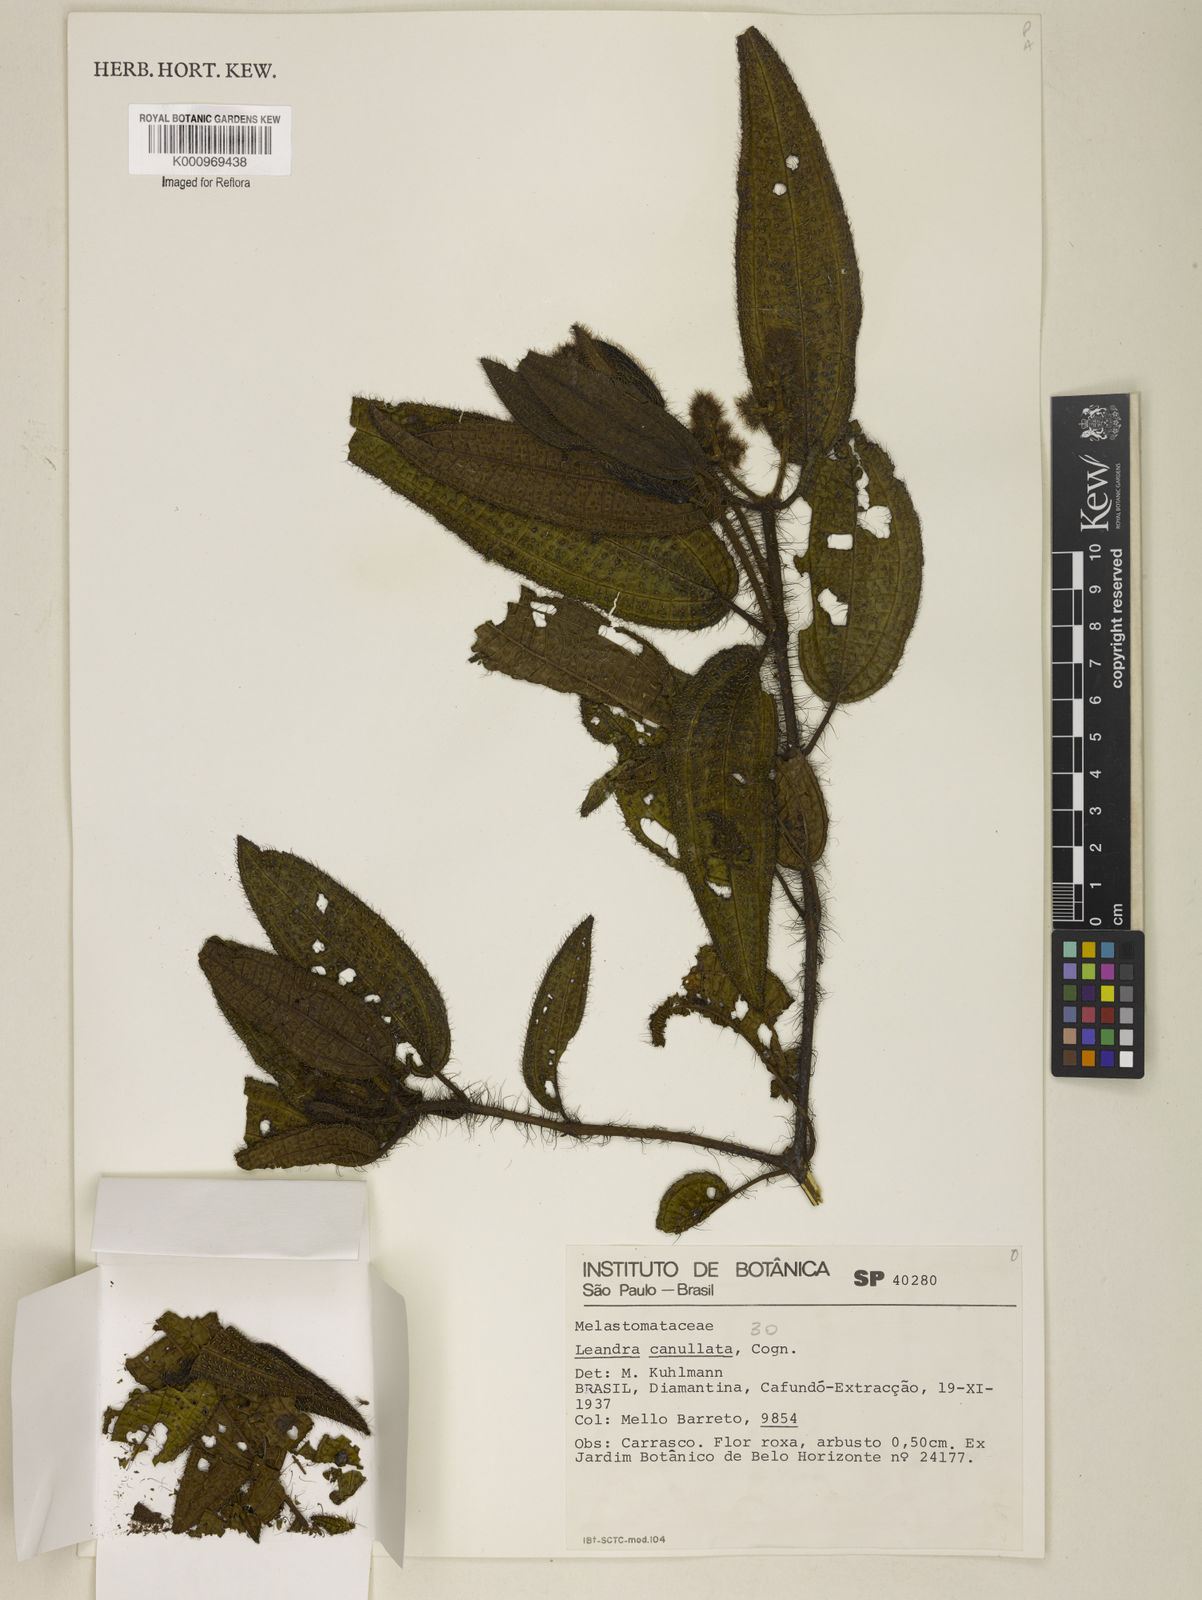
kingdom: Plantae
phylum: Tracheophyta
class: Magnoliopsida
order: Myrtales
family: Melastomataceae
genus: Miconia
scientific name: Miconia cancellata
